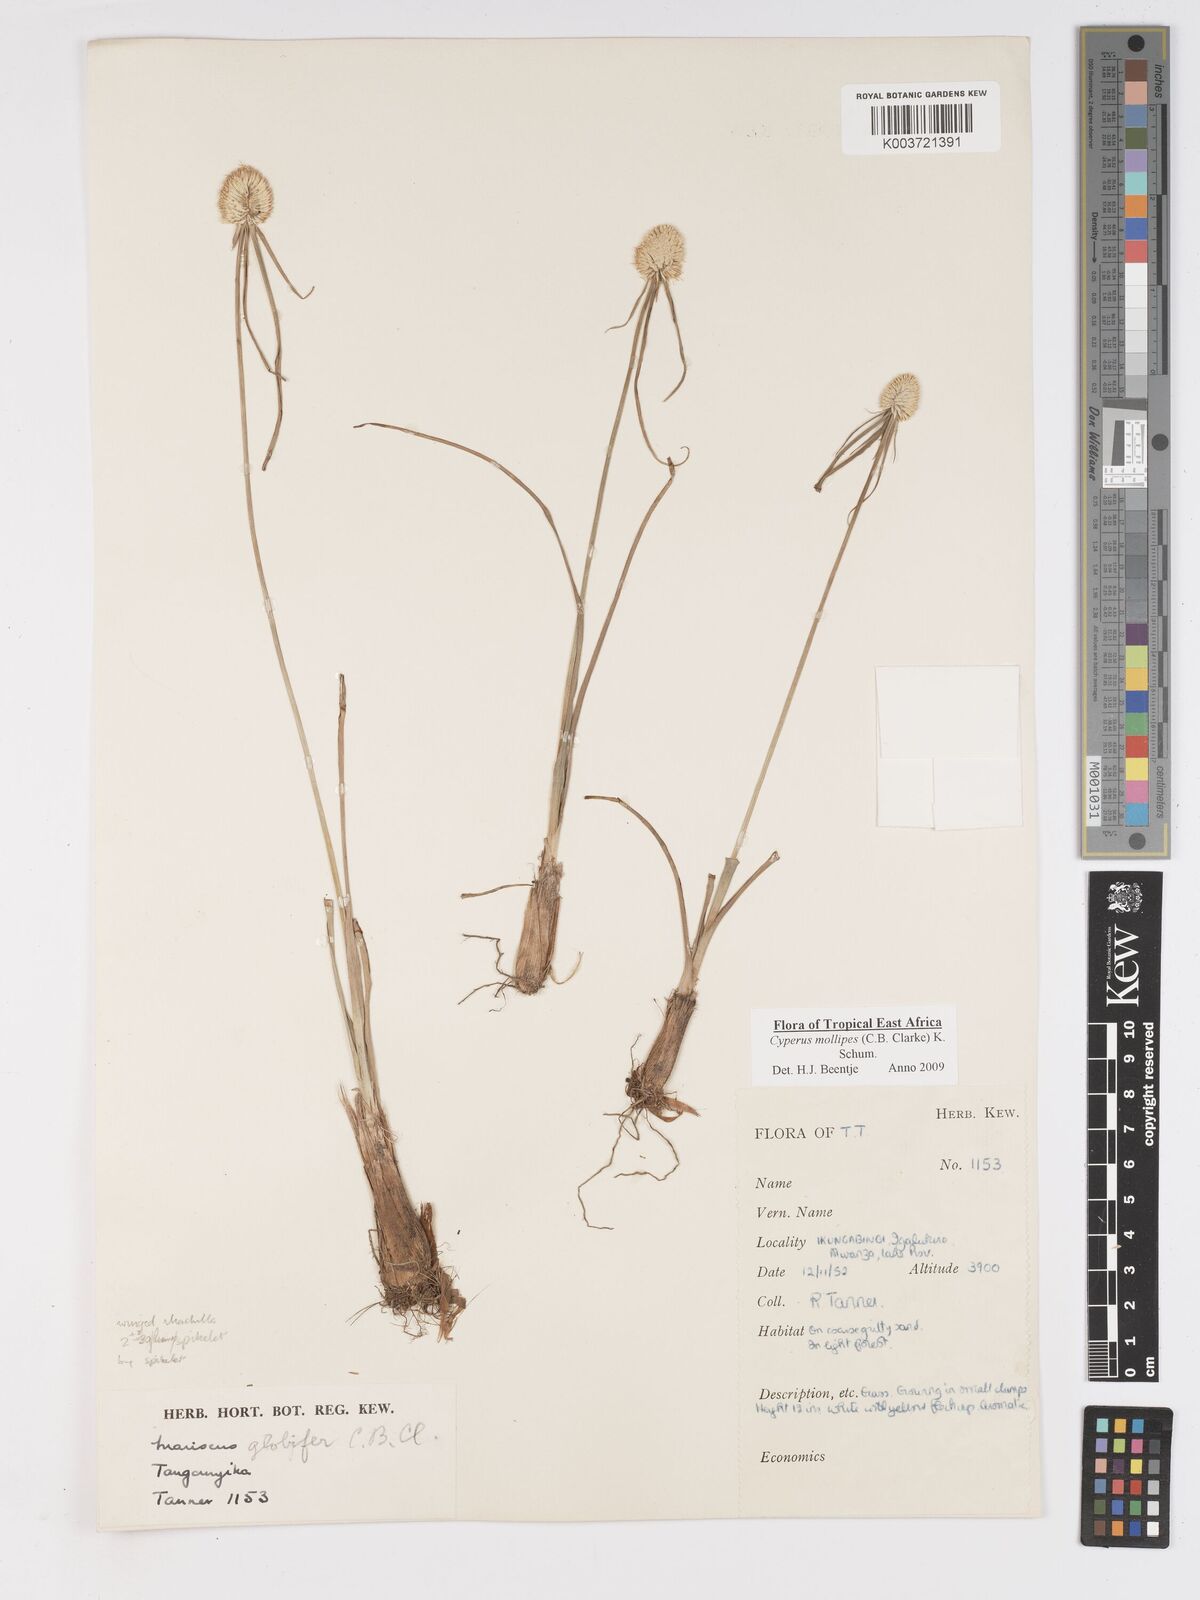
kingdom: Plantae
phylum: Tracheophyta
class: Liliopsida
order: Poales
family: Cyperaceae
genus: Cyperus
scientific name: Cyperus mollipes
